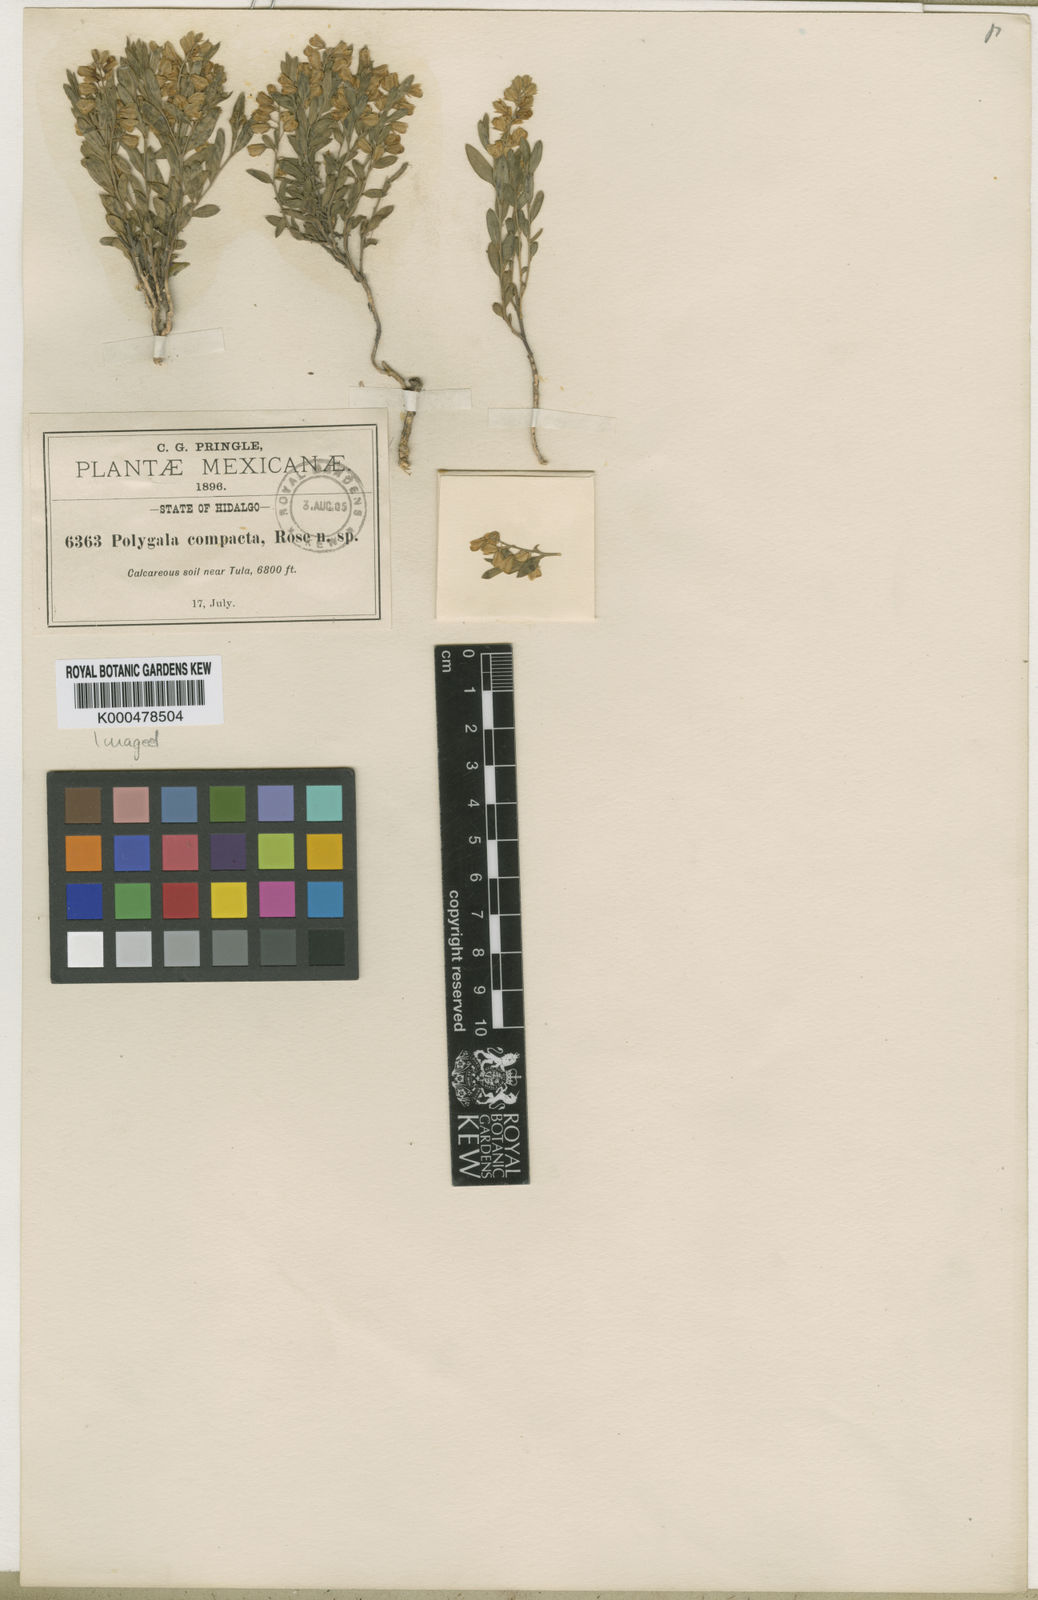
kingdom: Plantae
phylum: Tracheophyta
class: Magnoliopsida
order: Fabales
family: Polygalaceae
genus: Polygala
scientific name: Polygala compacta
